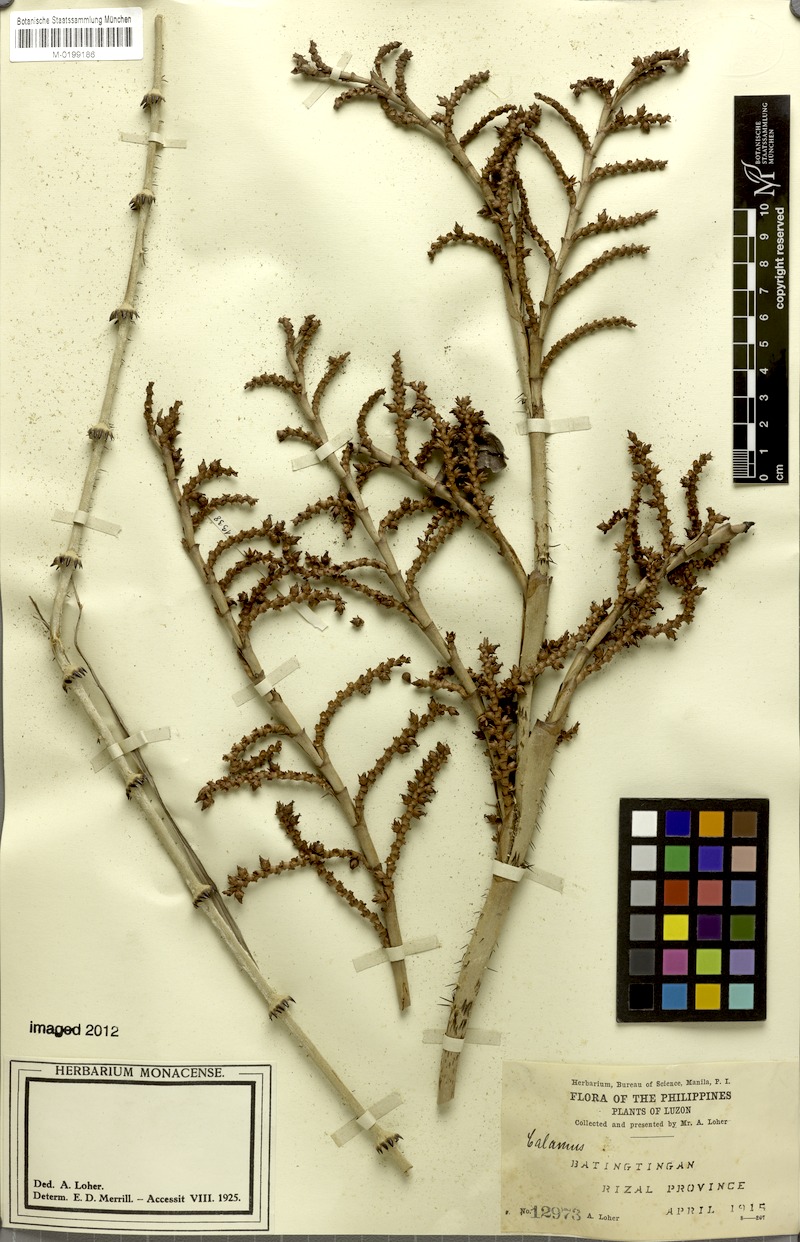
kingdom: Plantae
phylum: Tracheophyta
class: Liliopsida
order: Arecales
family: Arecaceae
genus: Calamus
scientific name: Calamus moseleyanus
